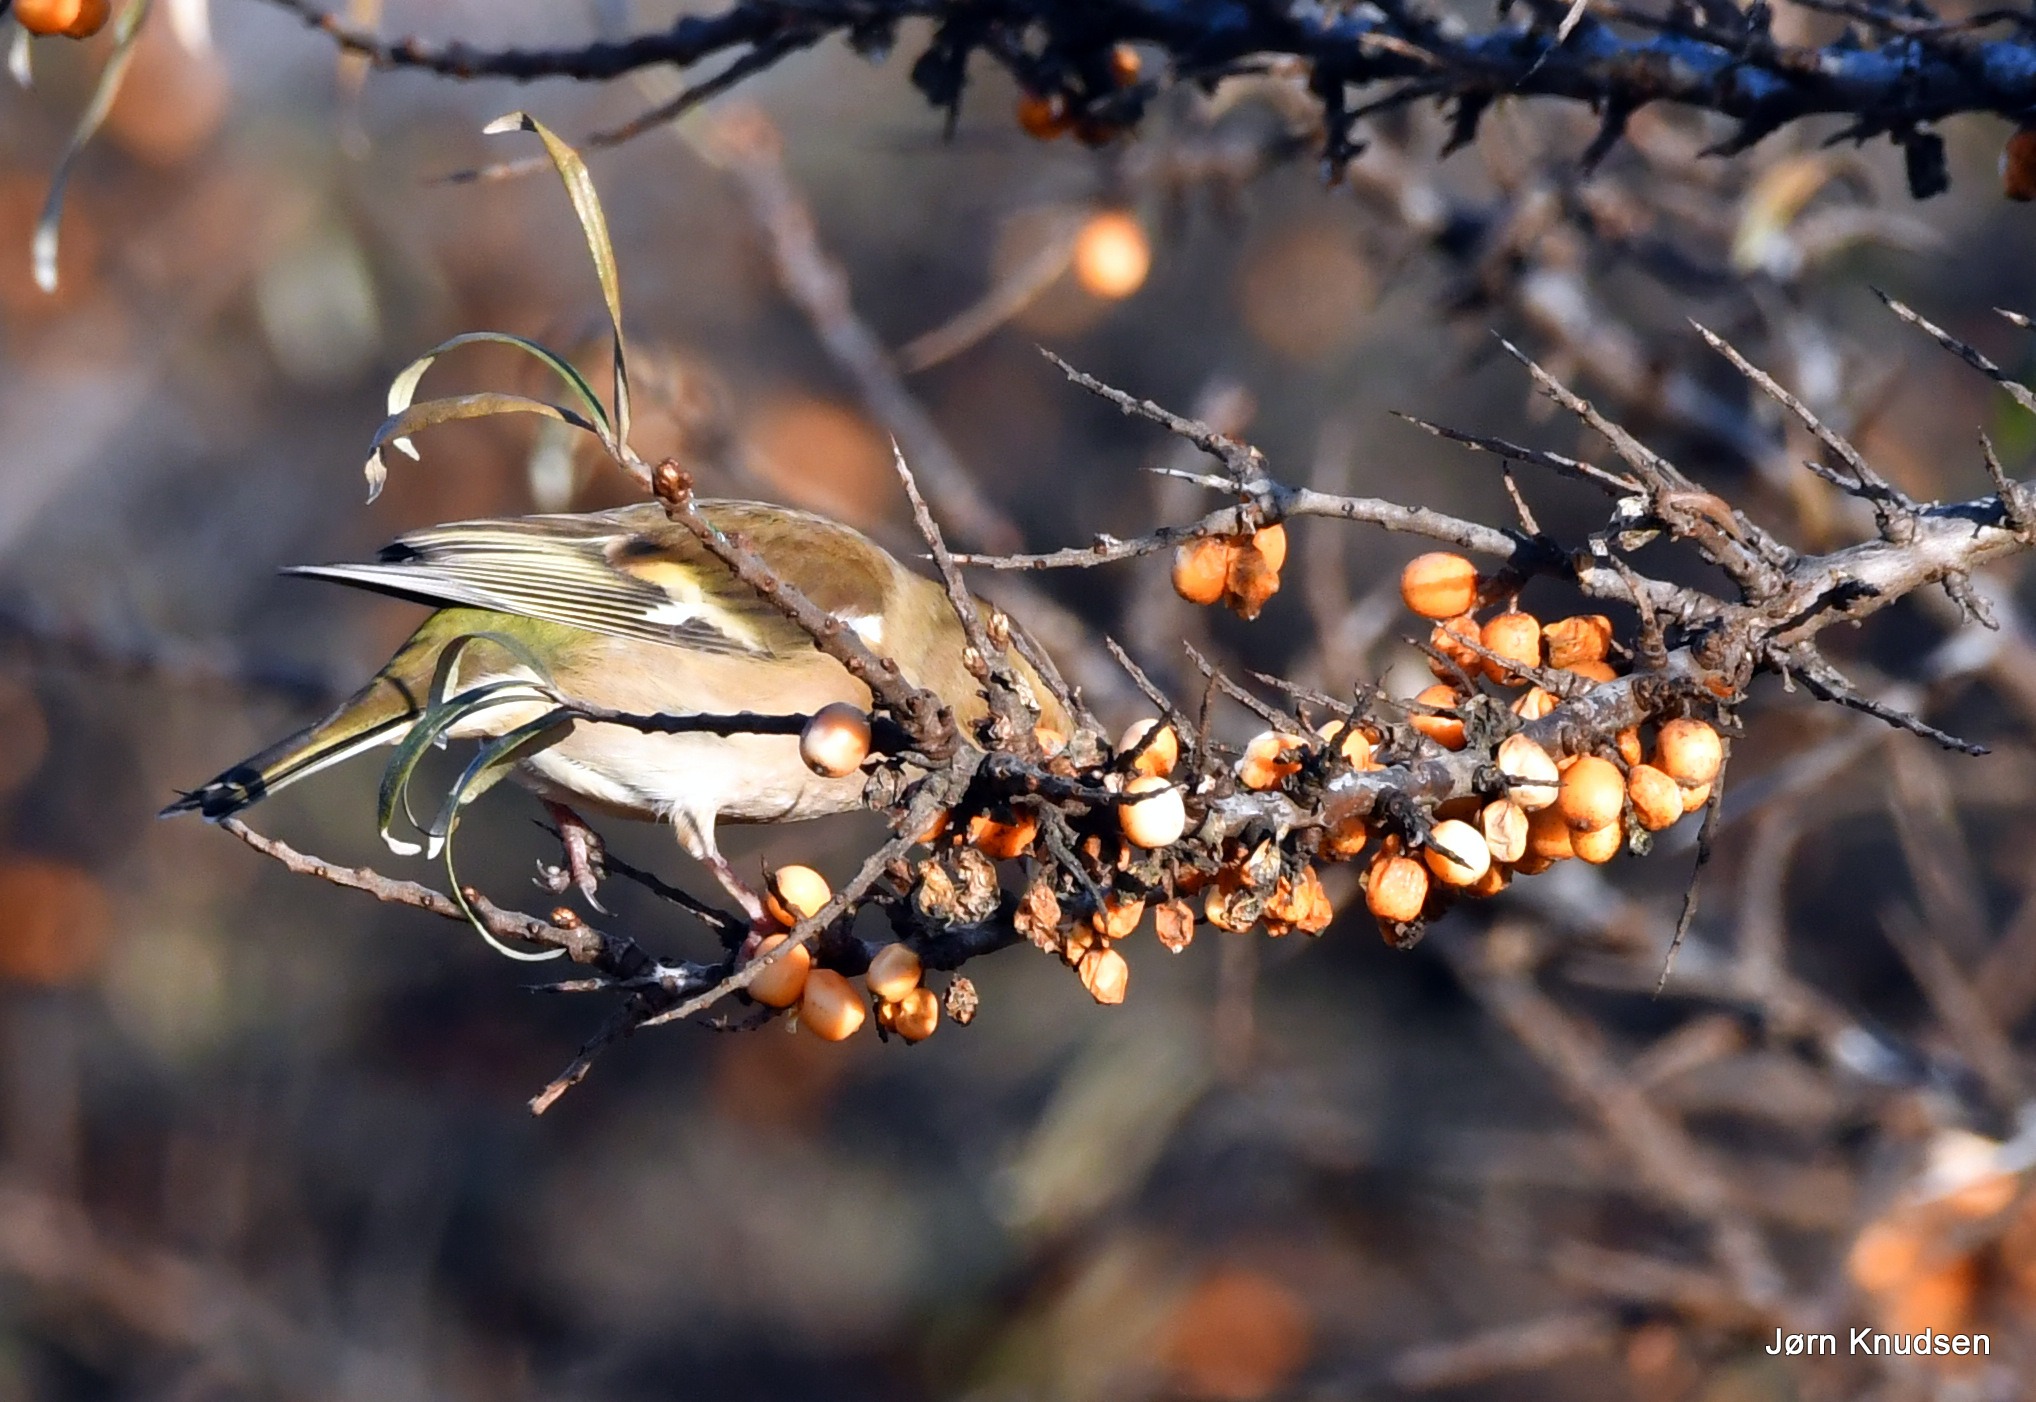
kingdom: Animalia
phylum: Chordata
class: Aves
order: Passeriformes
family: Fringillidae
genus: Fringilla
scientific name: Fringilla coelebs
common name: Bogfinke
